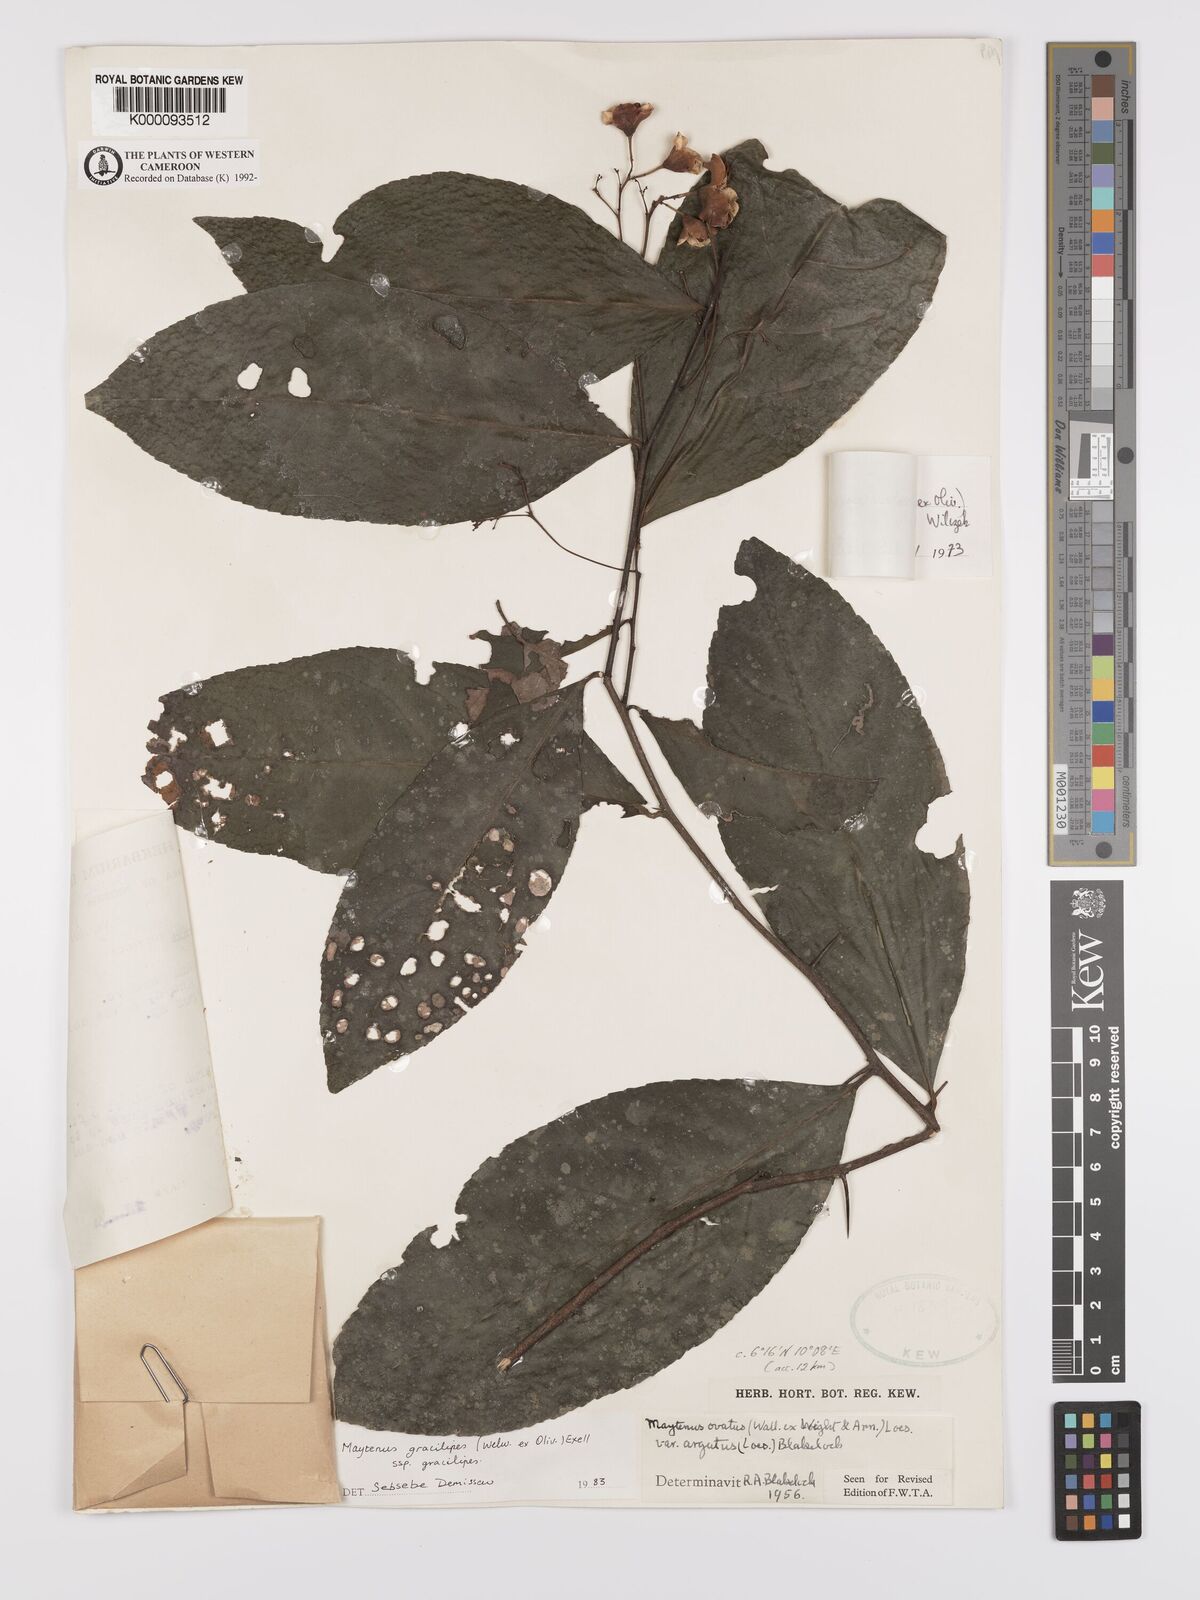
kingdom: Plantae
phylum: Tracheophyta
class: Magnoliopsida
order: Celastrales
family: Celastraceae
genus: Gymnosporia
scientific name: Gymnosporia gracilipes
